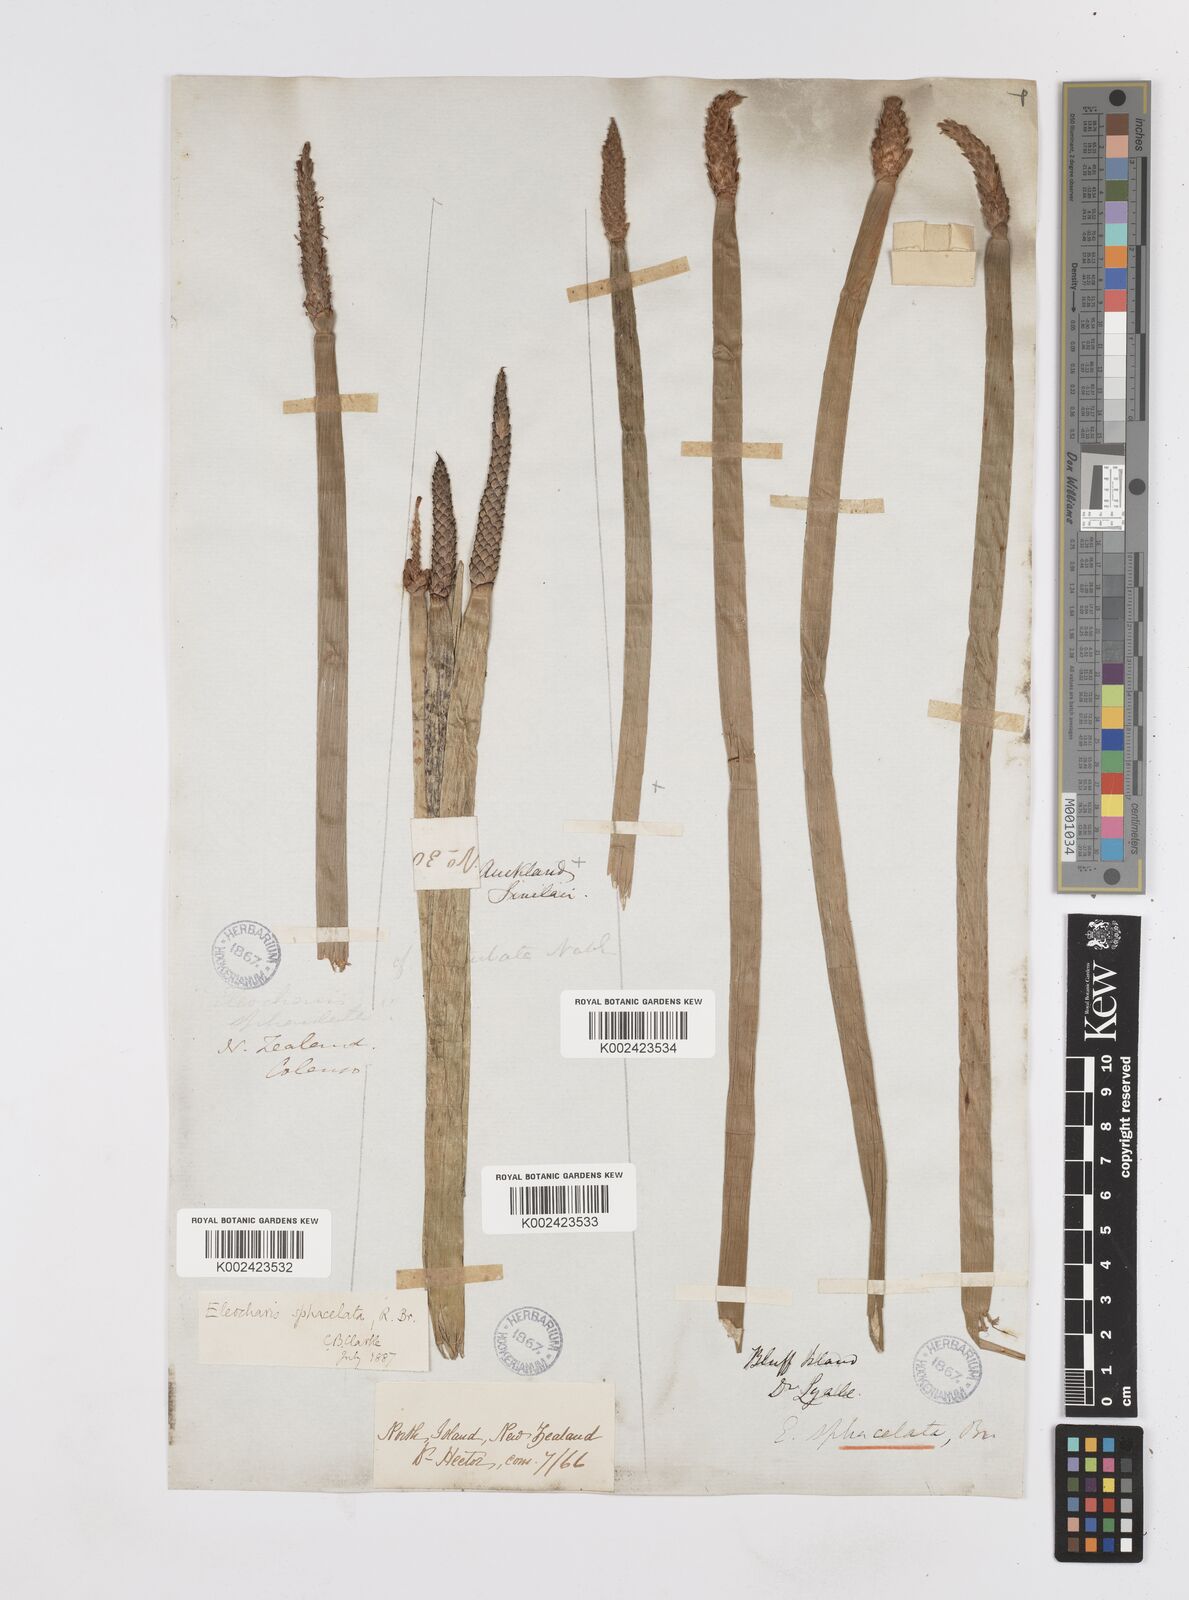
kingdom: Plantae
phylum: Tracheophyta
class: Liliopsida
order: Poales
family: Cyperaceae
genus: Eleocharis
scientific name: Eleocharis sphacelata
